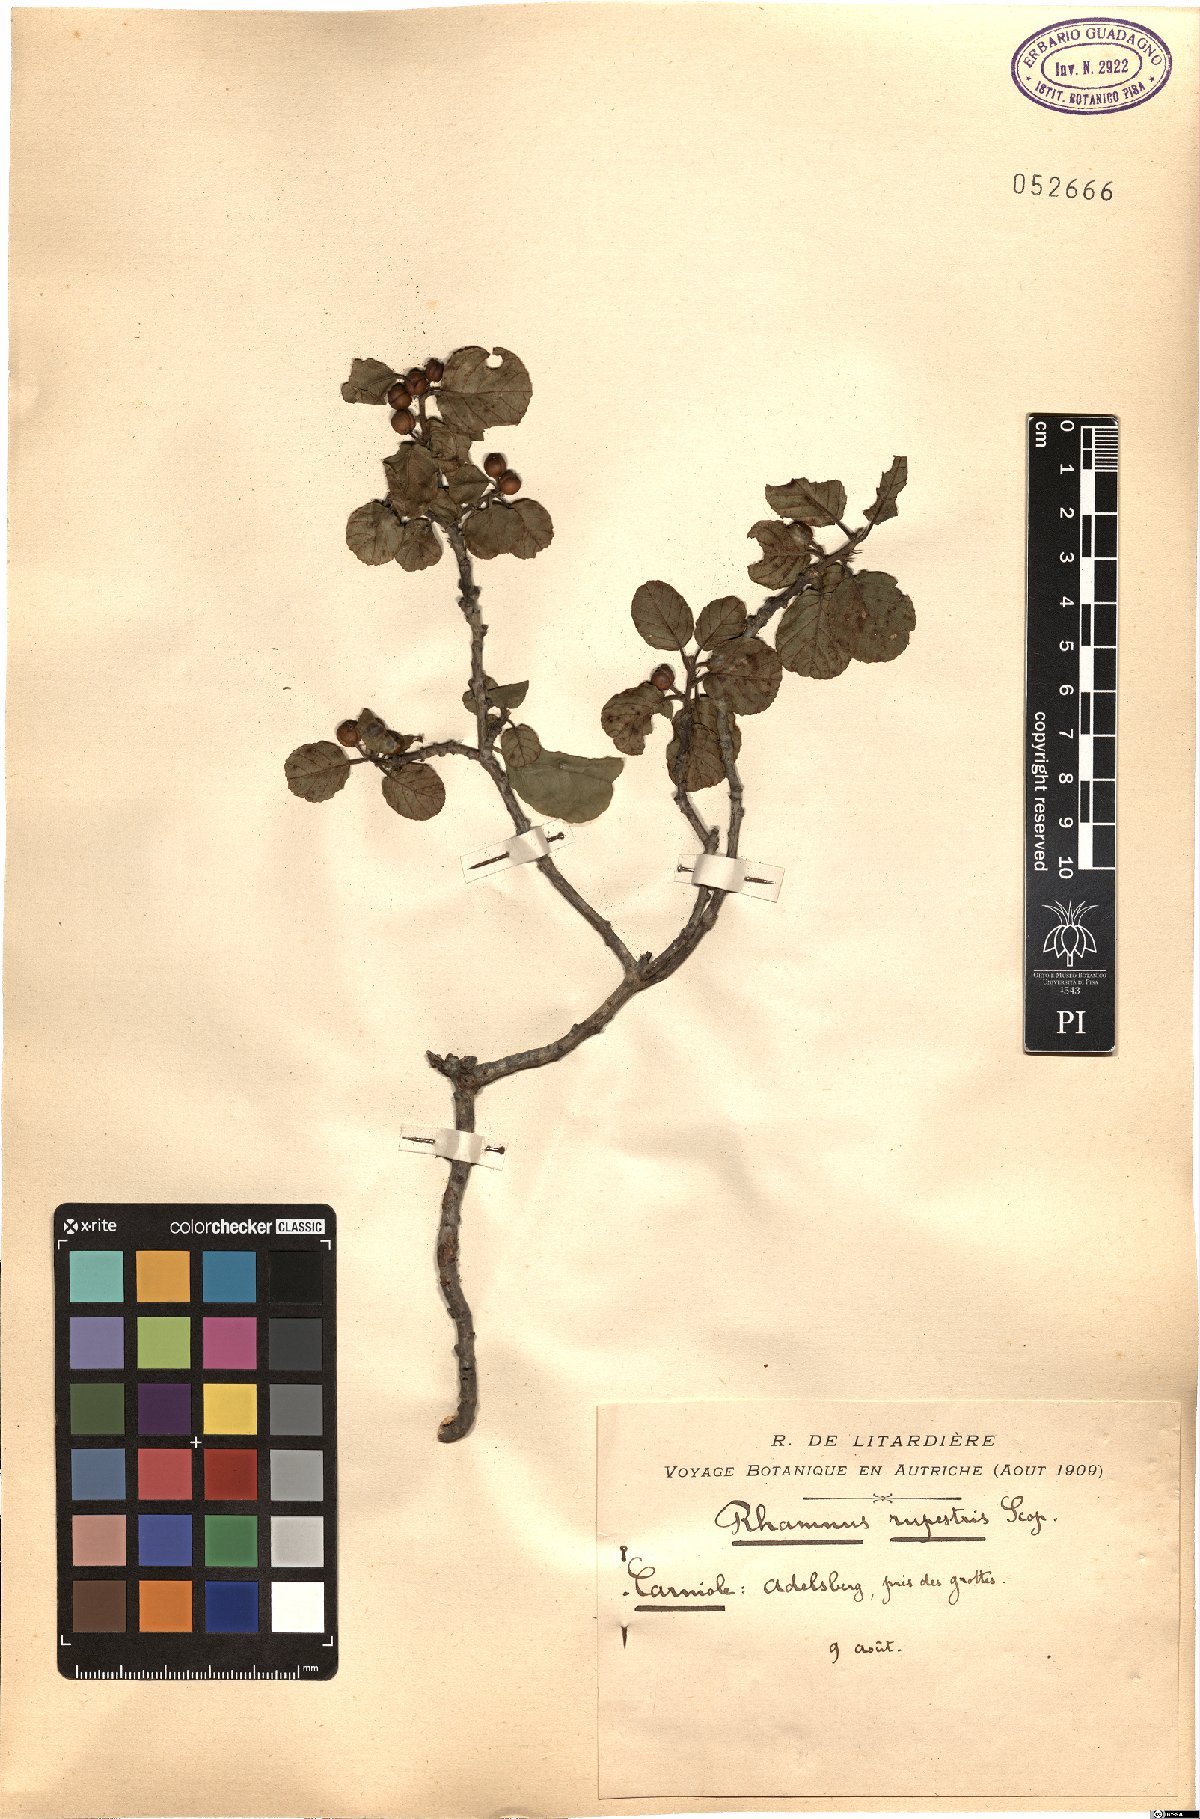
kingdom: Plantae
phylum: Tracheophyta
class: Magnoliopsida
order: Rosales
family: Rhamnaceae
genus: Frangula
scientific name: Frangula rupestris
